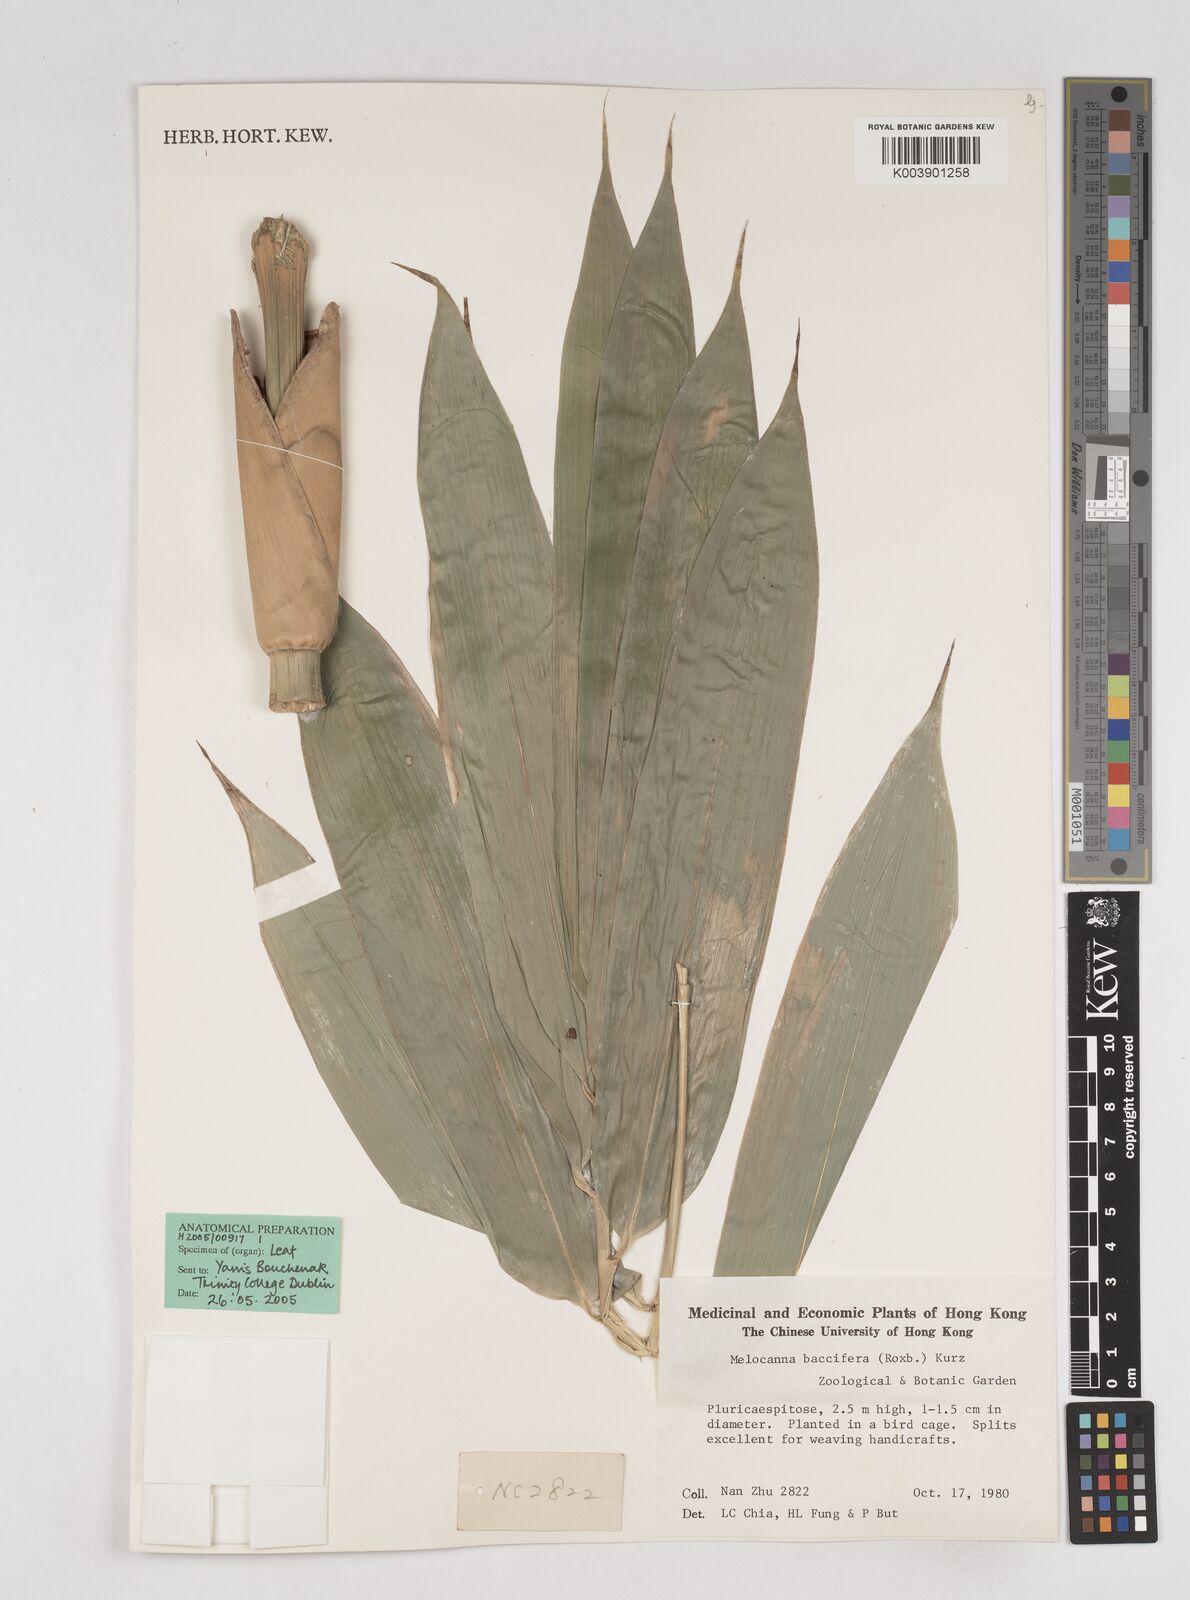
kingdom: Plantae
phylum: Tracheophyta
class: Liliopsida
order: Poales
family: Poaceae
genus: Melocanna
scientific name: Melocanna baccifera
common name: Berry bamboo
